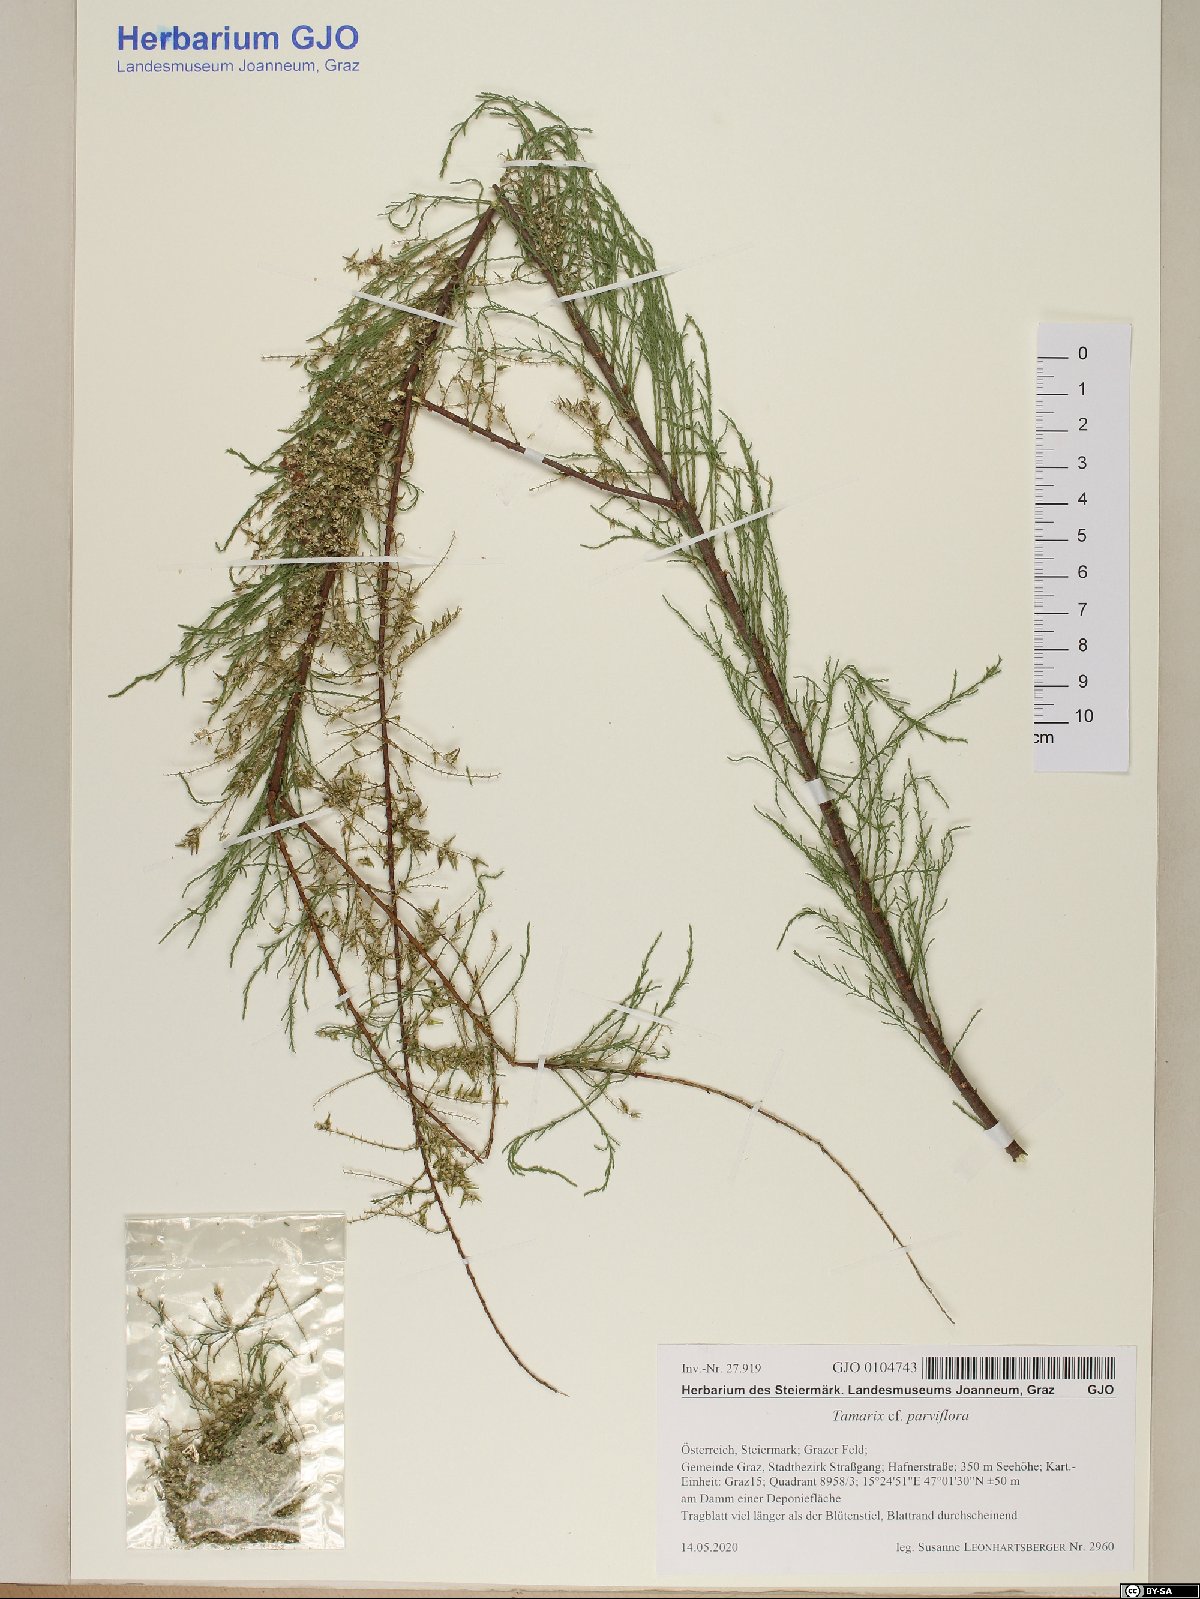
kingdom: Plantae
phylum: Tracheophyta
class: Magnoliopsida
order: Caryophyllales
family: Tamaricaceae
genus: Tamarix
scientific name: Tamarix parviflora
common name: Smallflower tamarisk
